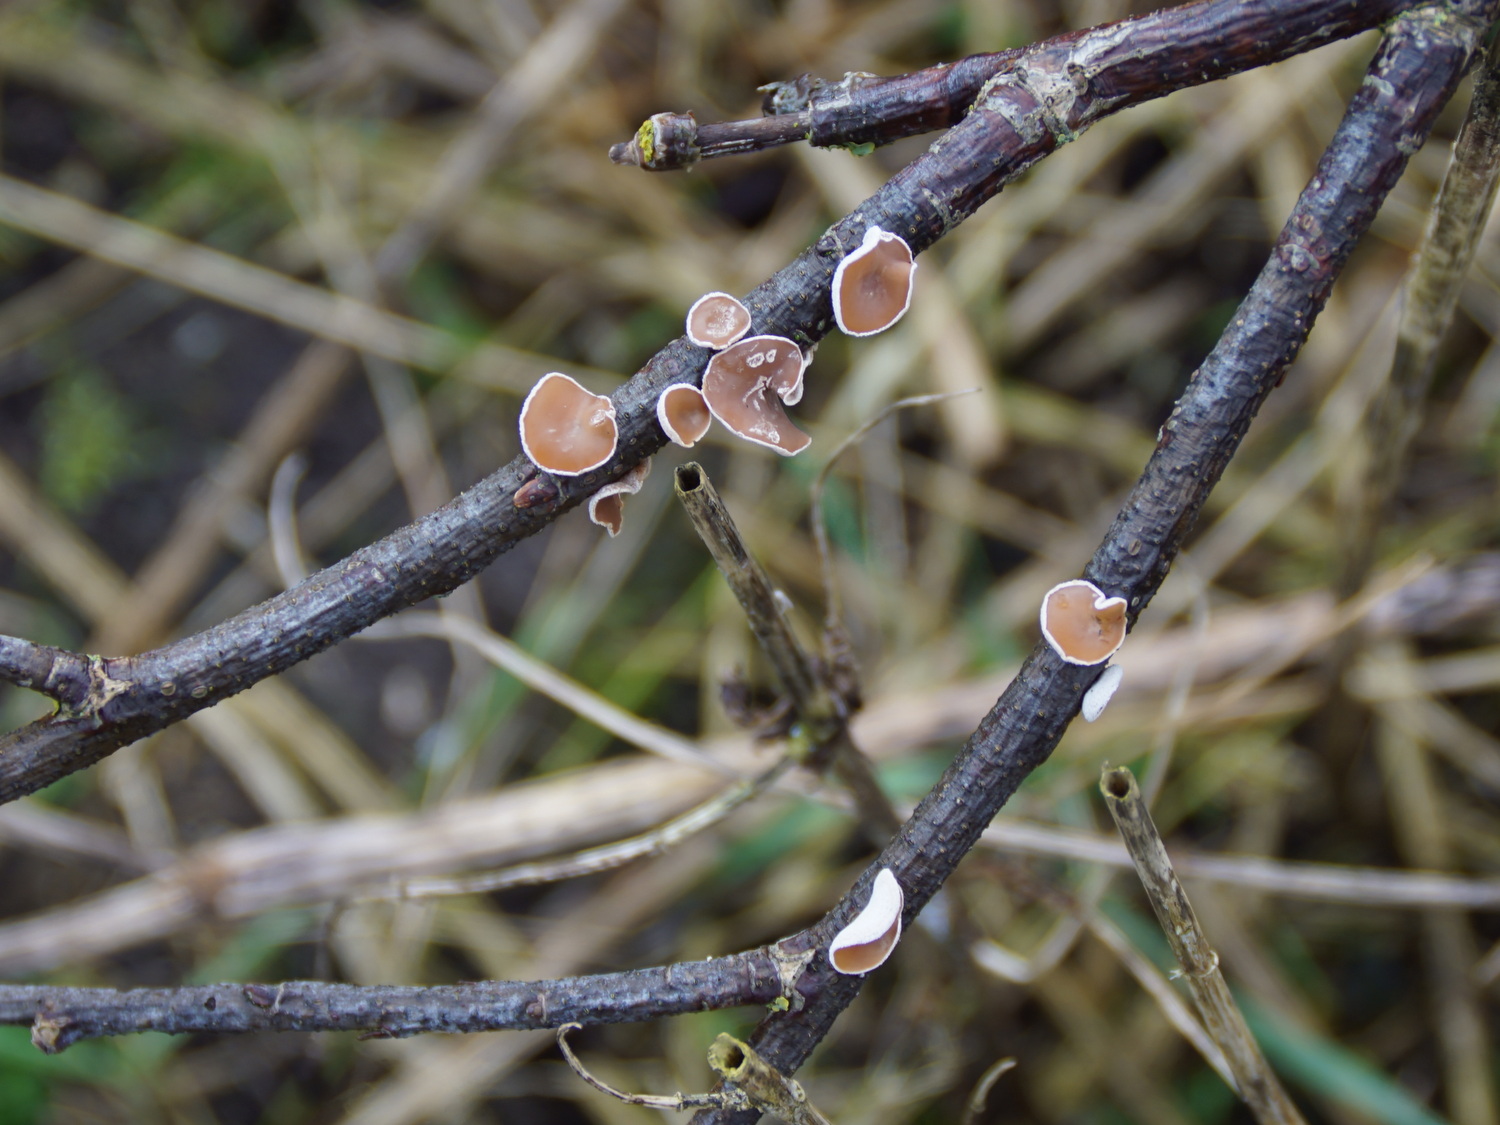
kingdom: Fungi
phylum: Basidiomycota
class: Agaricomycetes
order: Agaricales
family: Schizophyllaceae
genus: Schizophyllum
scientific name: Schizophyllum amplum
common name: poppel-hængeøre
